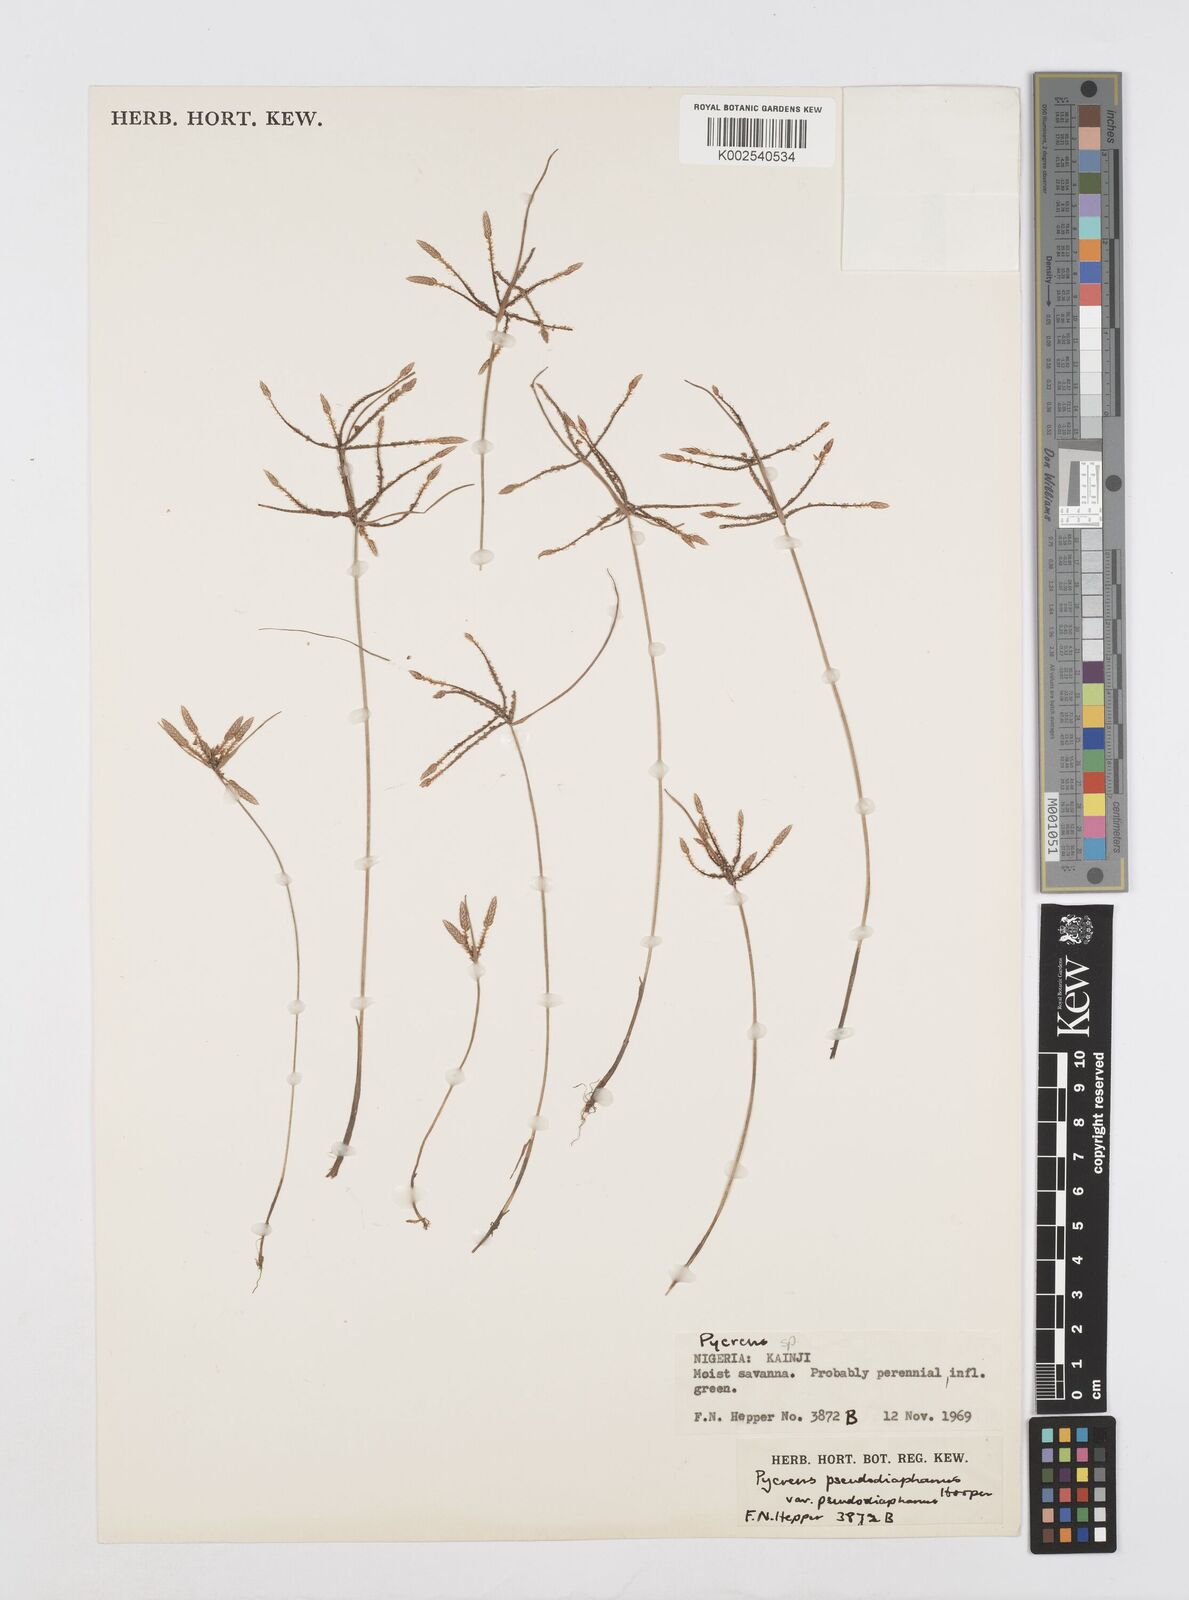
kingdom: Plantae
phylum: Tracheophyta
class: Liliopsida
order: Poales
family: Cyperaceae
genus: Cyperus
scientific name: Cyperus pseudodiaphanus
